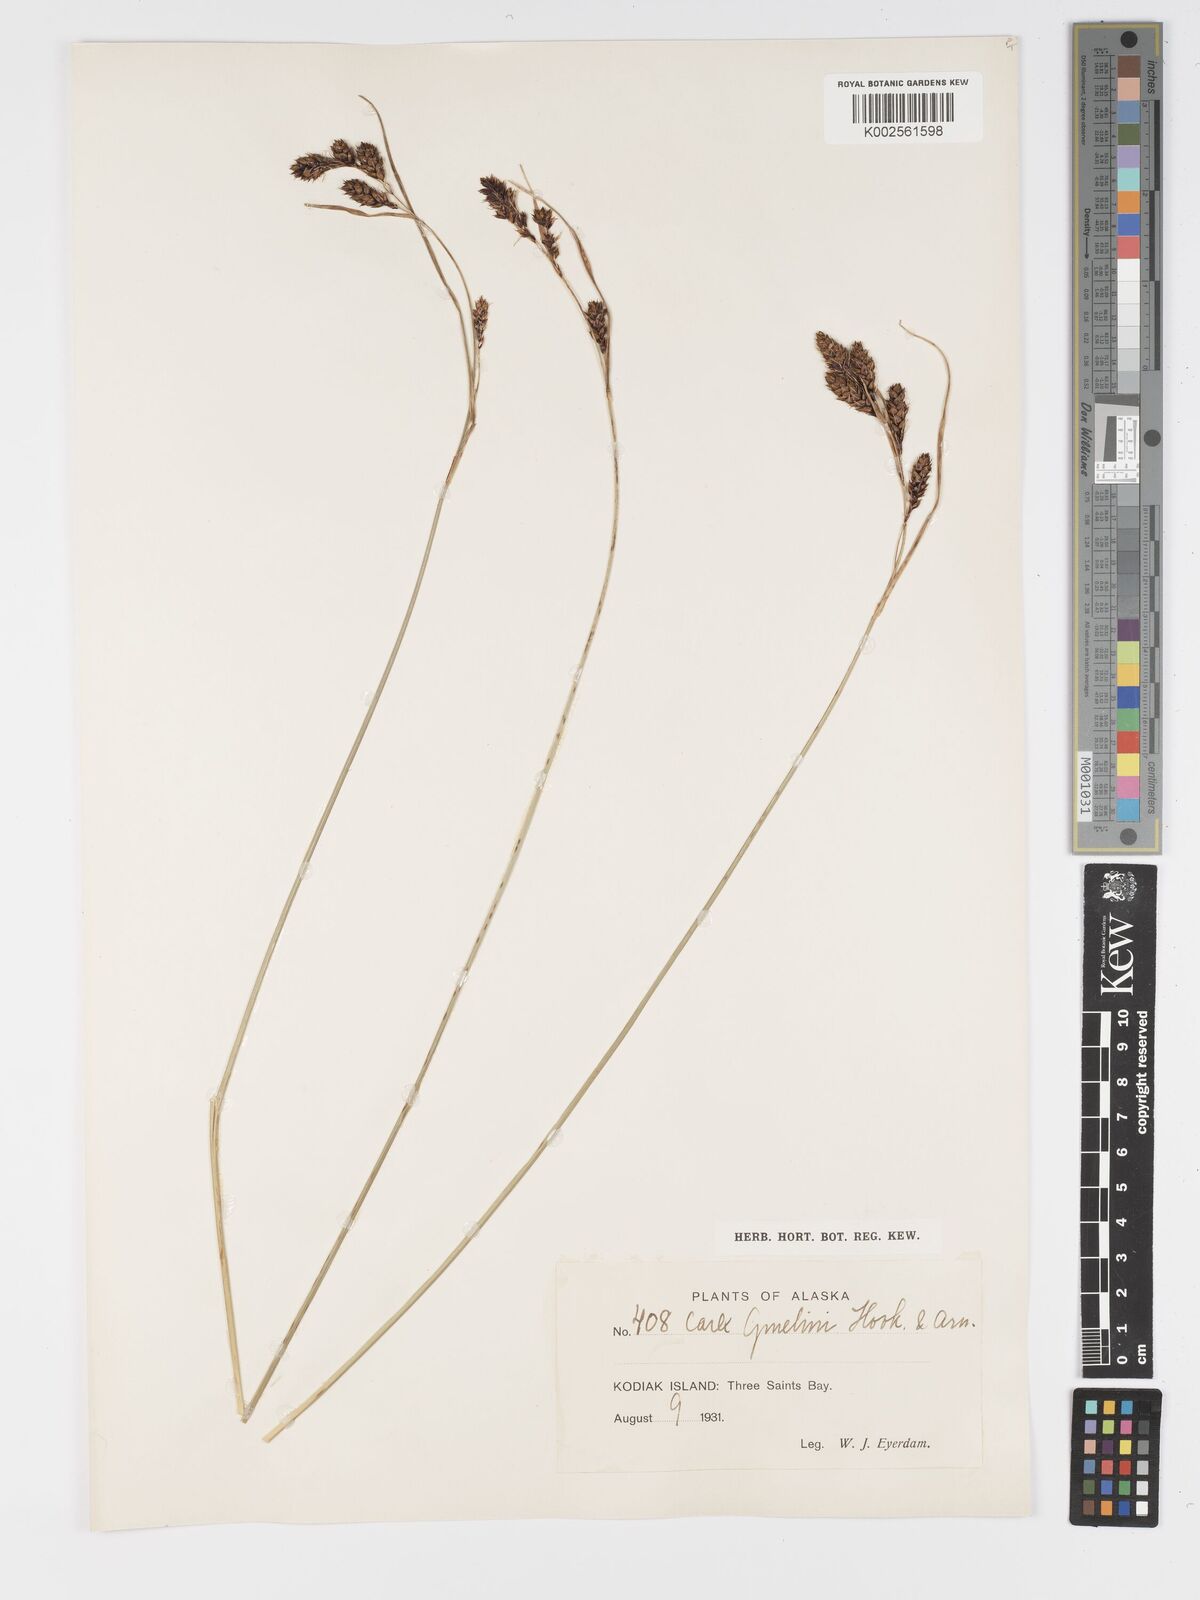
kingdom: Plantae
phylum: Tracheophyta
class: Liliopsida
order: Poales
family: Cyperaceae
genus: Carex
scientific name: Carex gmelinii
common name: Gmelin's sedge
